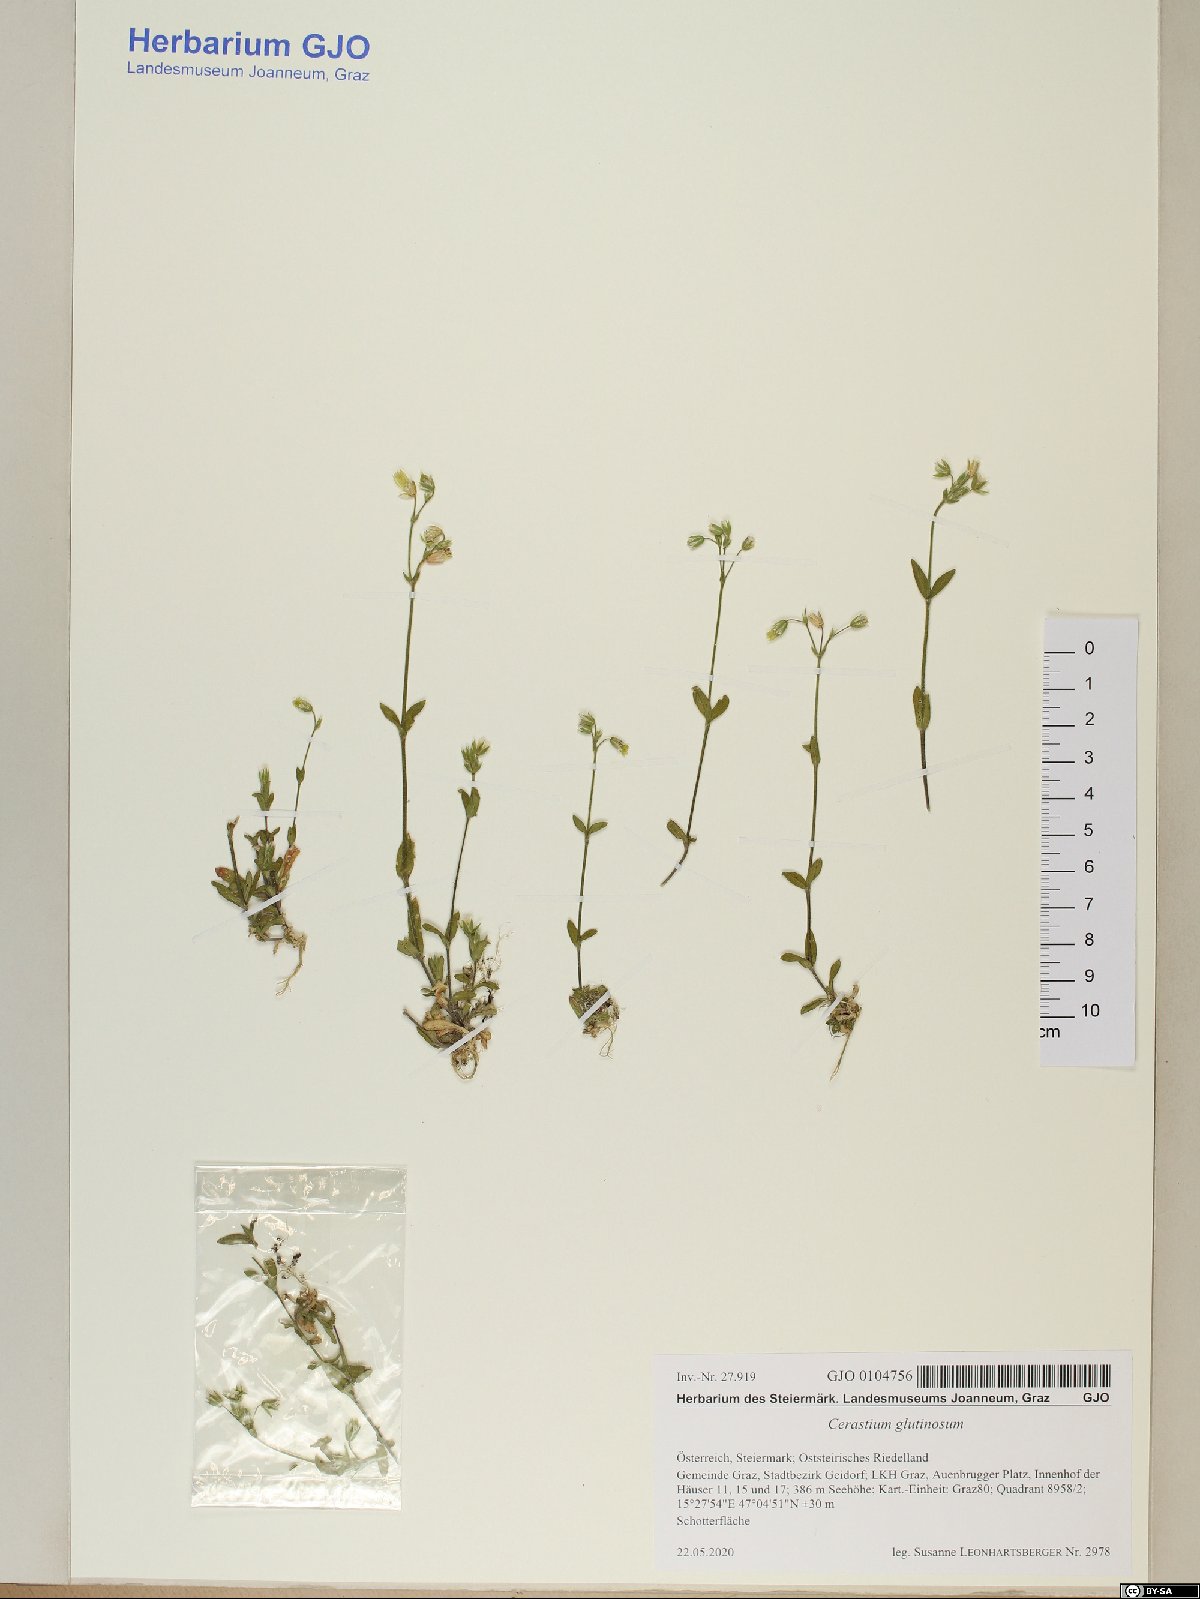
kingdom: Plantae
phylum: Tracheophyta
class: Magnoliopsida
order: Caryophyllales
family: Caryophyllaceae
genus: Cerastium
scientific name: Cerastium glutinosum
